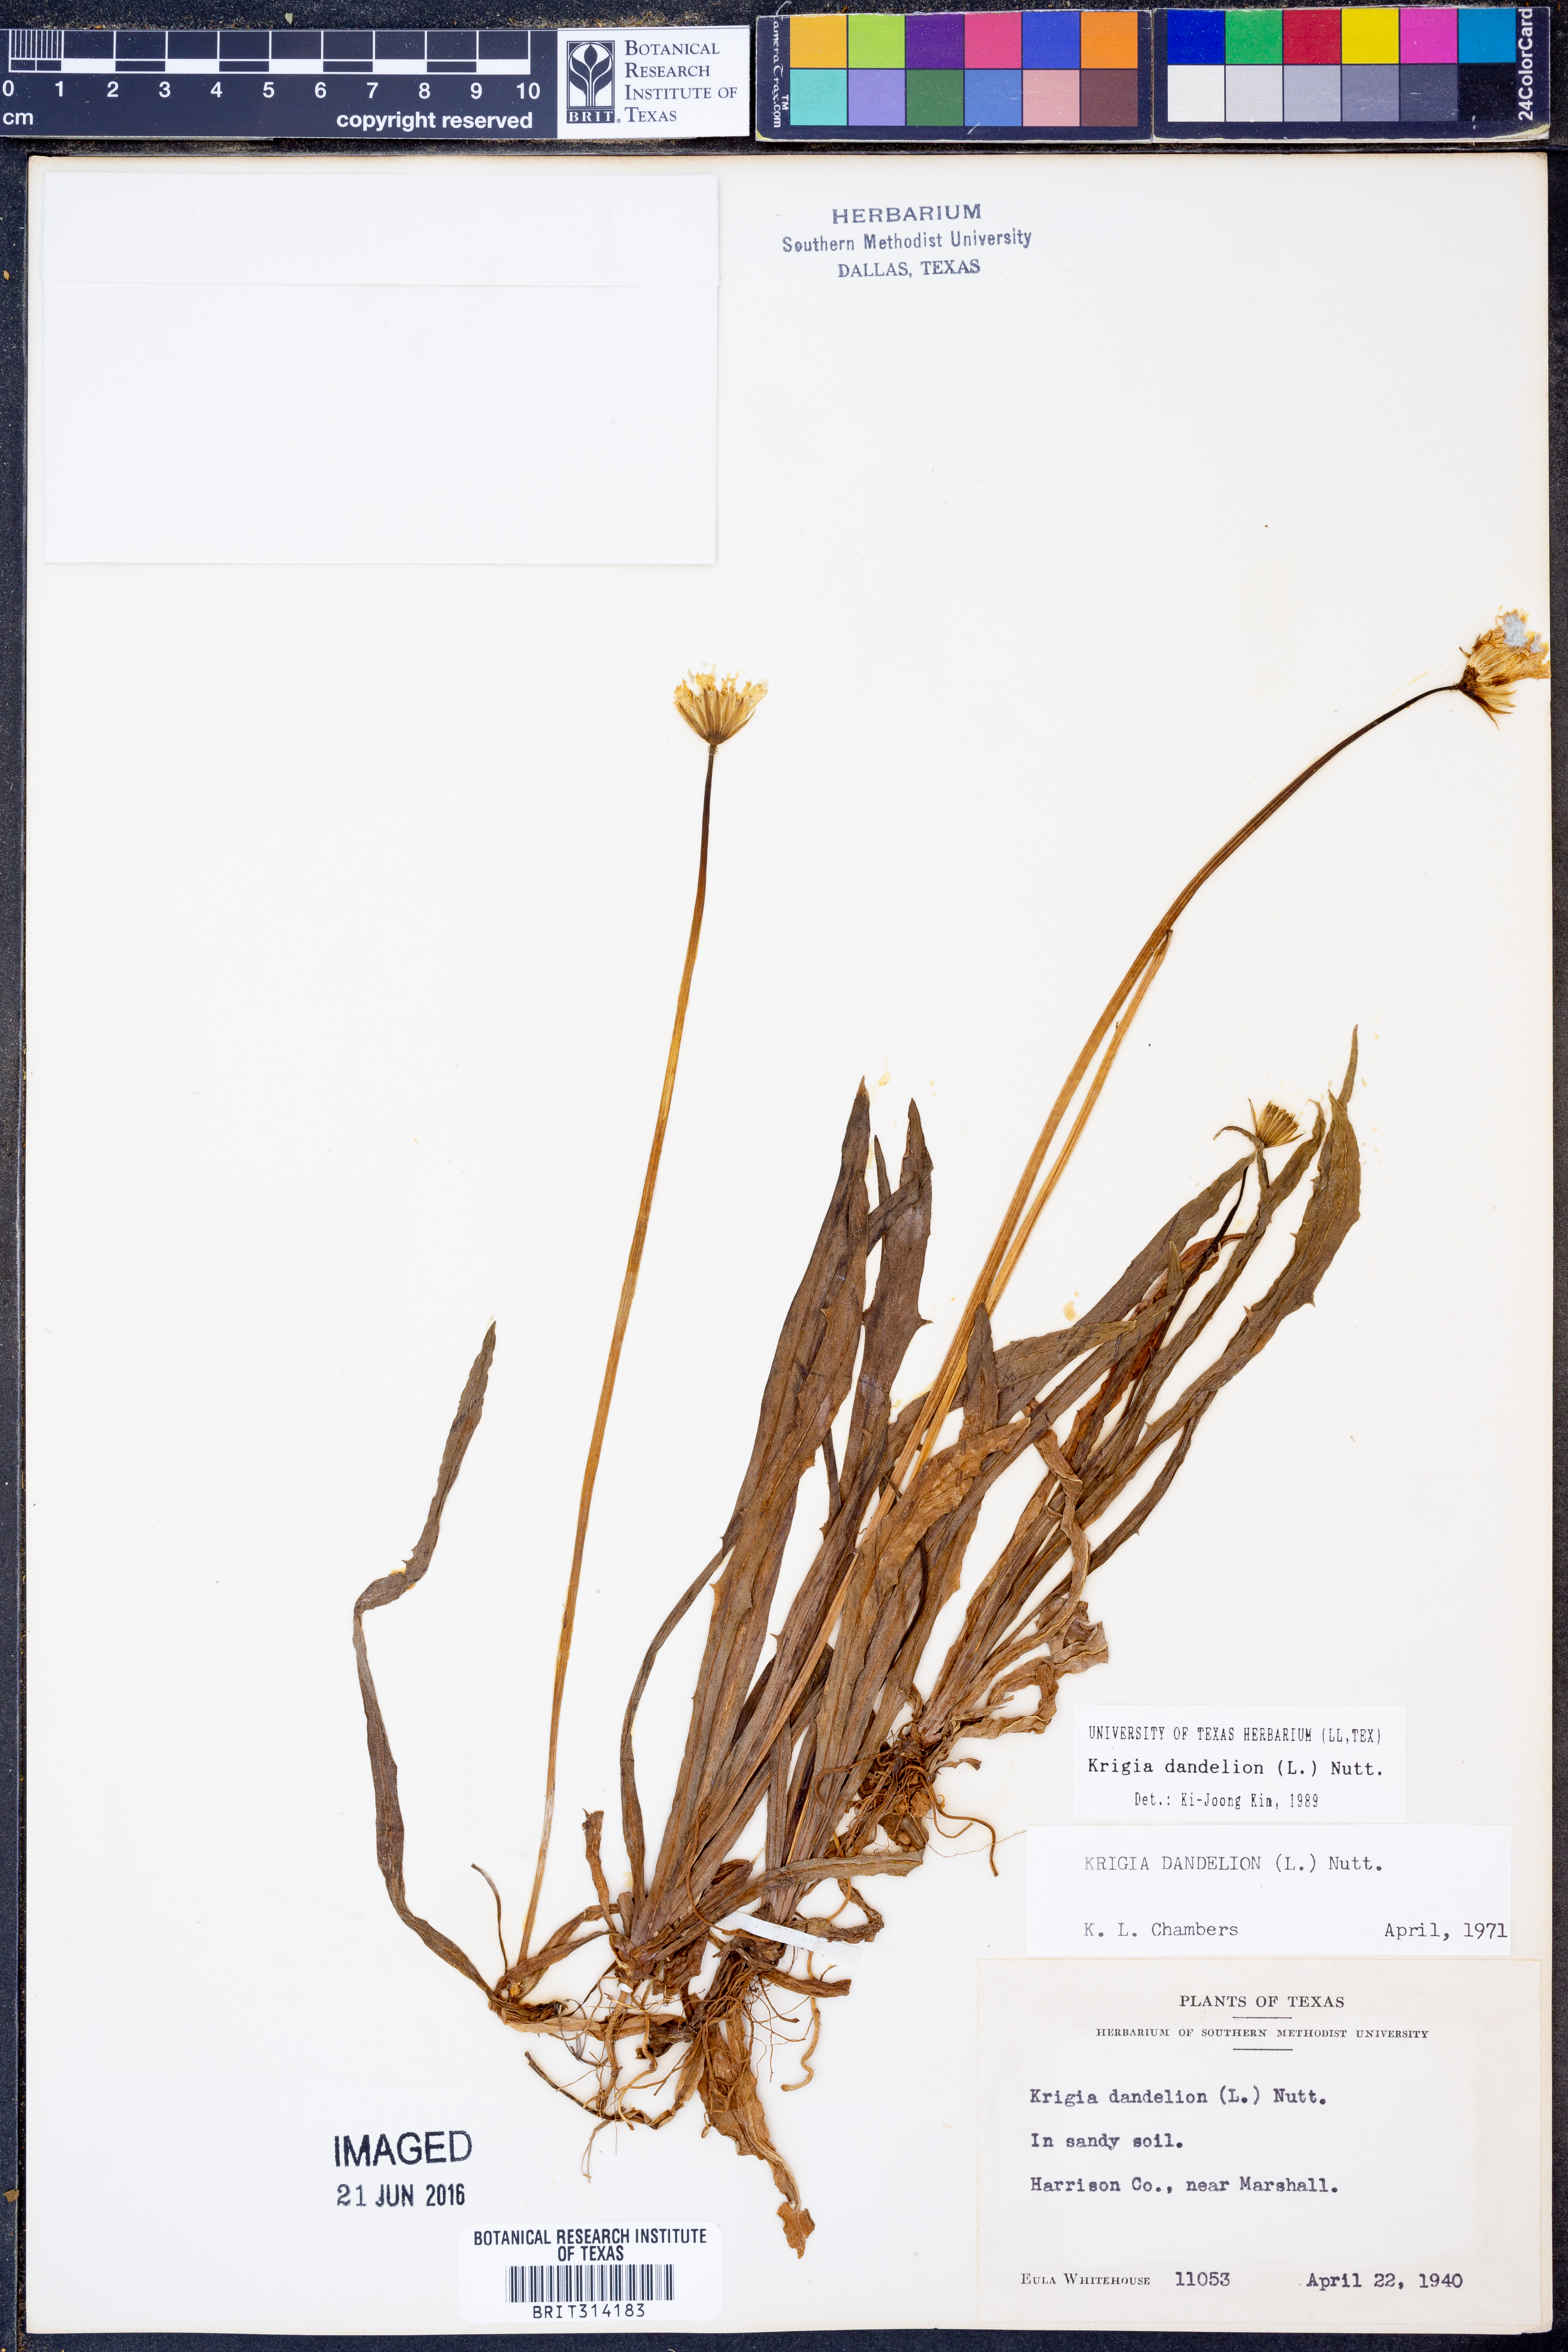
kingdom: Plantae
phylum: Tracheophyta
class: Magnoliopsida
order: Asterales
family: Asteraceae
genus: Krigia
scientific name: Krigia dandelion
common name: Colonial dwarf-dandelion
